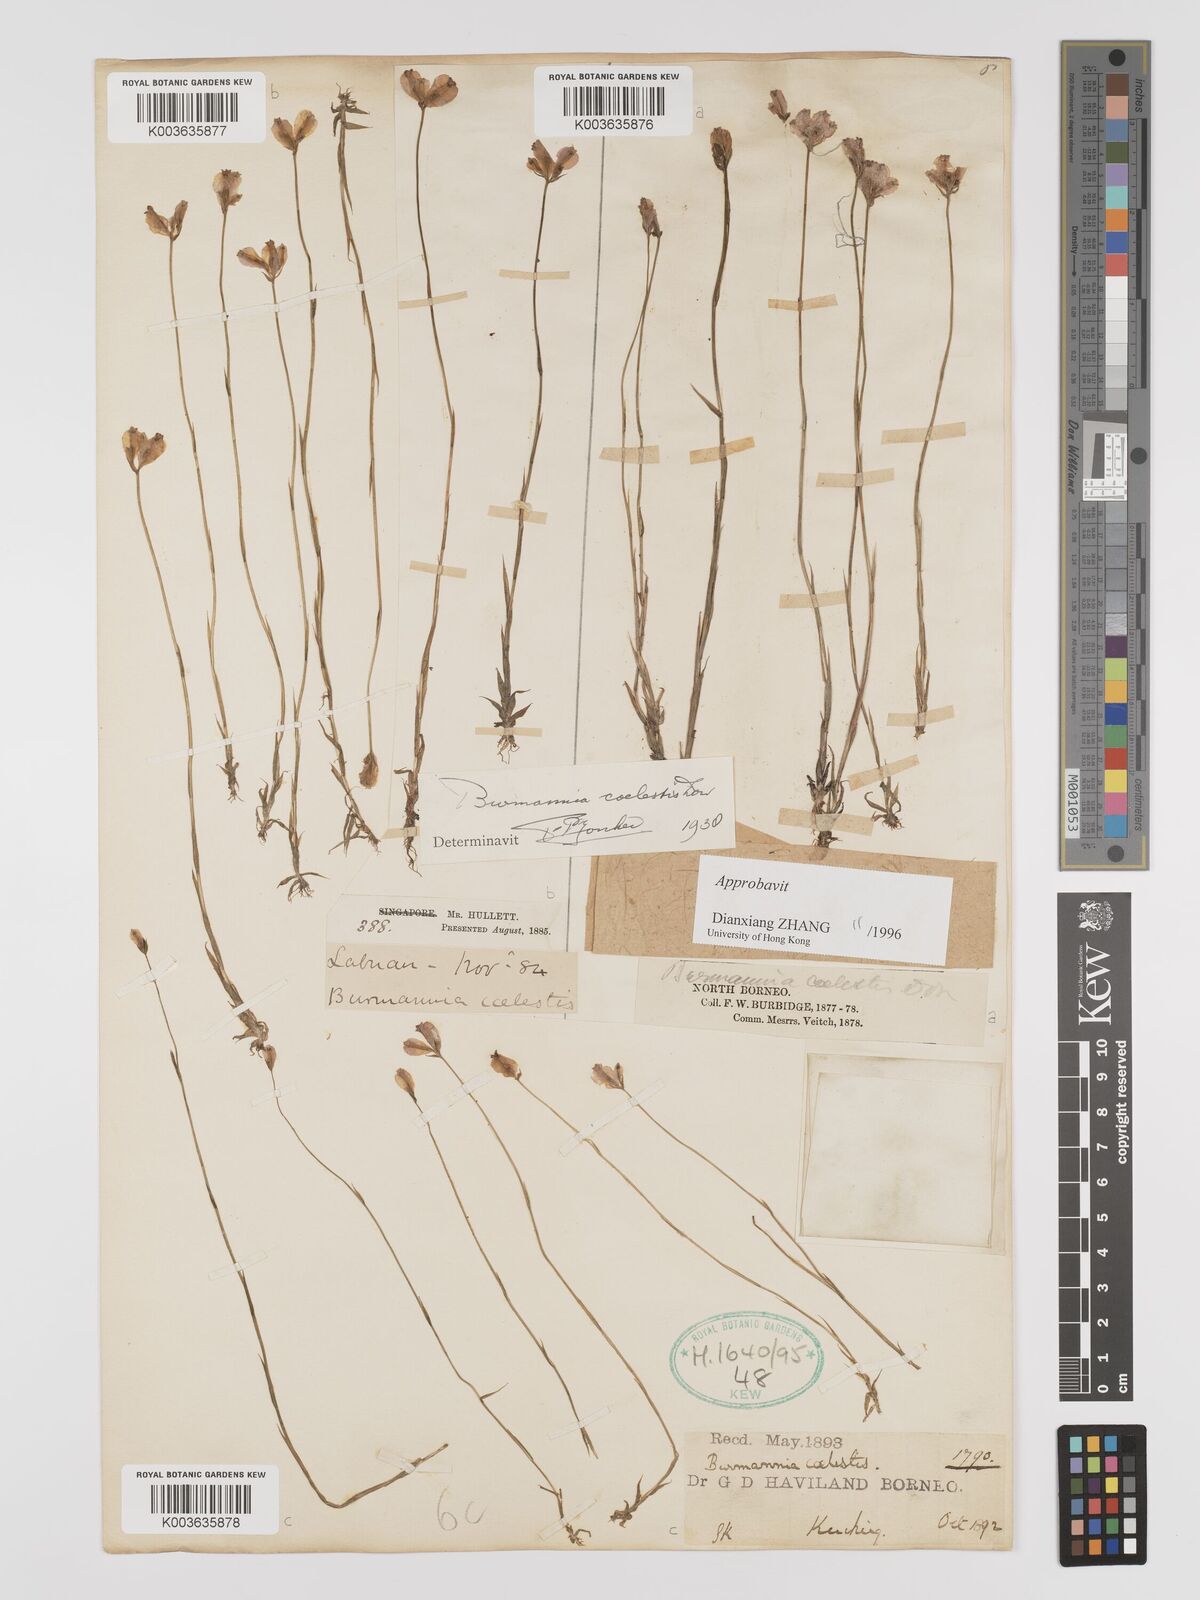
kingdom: Plantae
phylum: Tracheophyta
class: Liliopsida
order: Dioscoreales
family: Burmanniaceae
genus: Burmannia
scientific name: Burmannia coelestis
